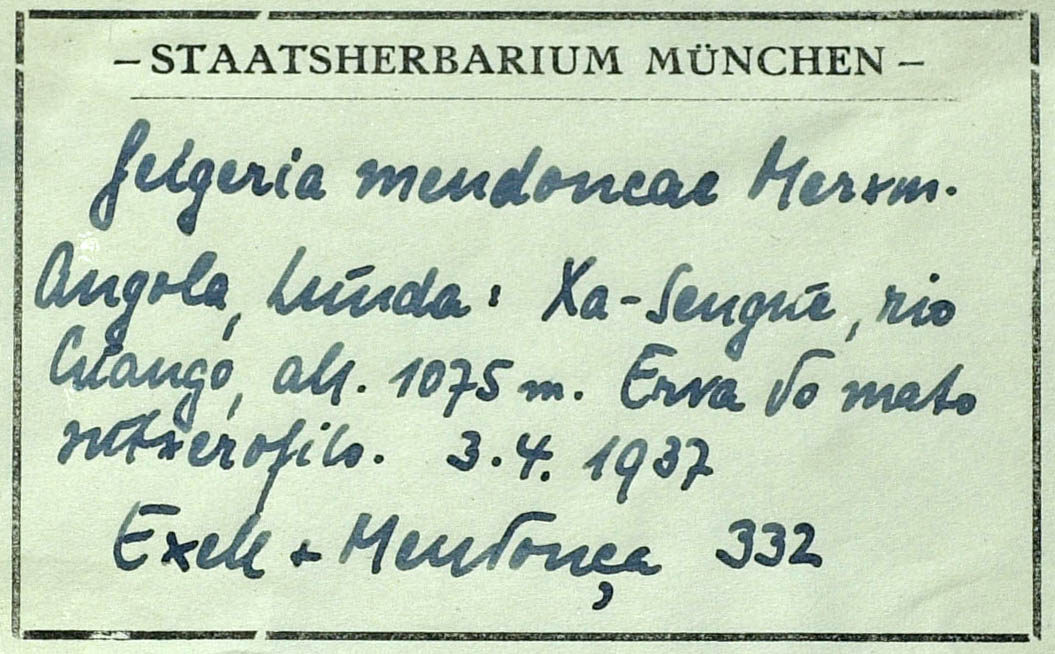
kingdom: Plantae
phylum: Tracheophyta
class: Magnoliopsida
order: Asterales
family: Asteraceae
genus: Geigeria
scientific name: Geigeria mendoncae
